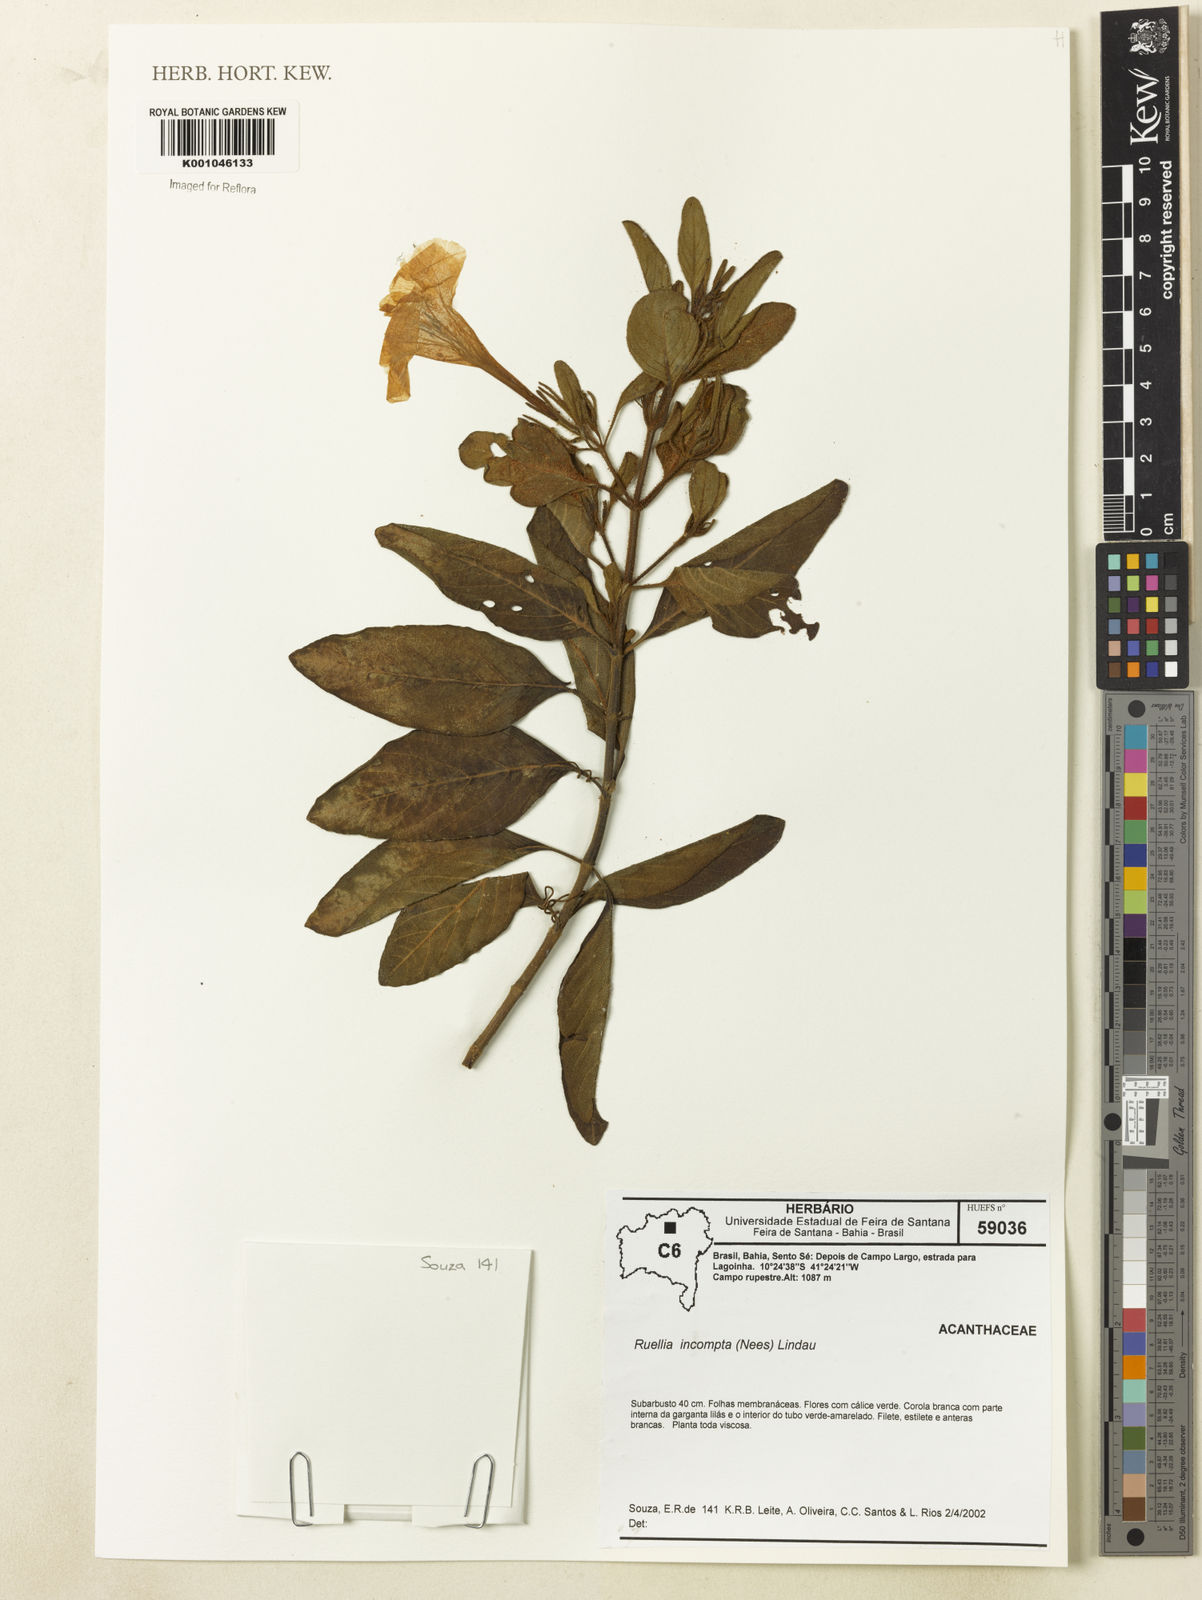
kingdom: Plantae
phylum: Tracheophyta
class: Magnoliopsida
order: Lamiales
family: Acanthaceae
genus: Ruellia
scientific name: Ruellia
